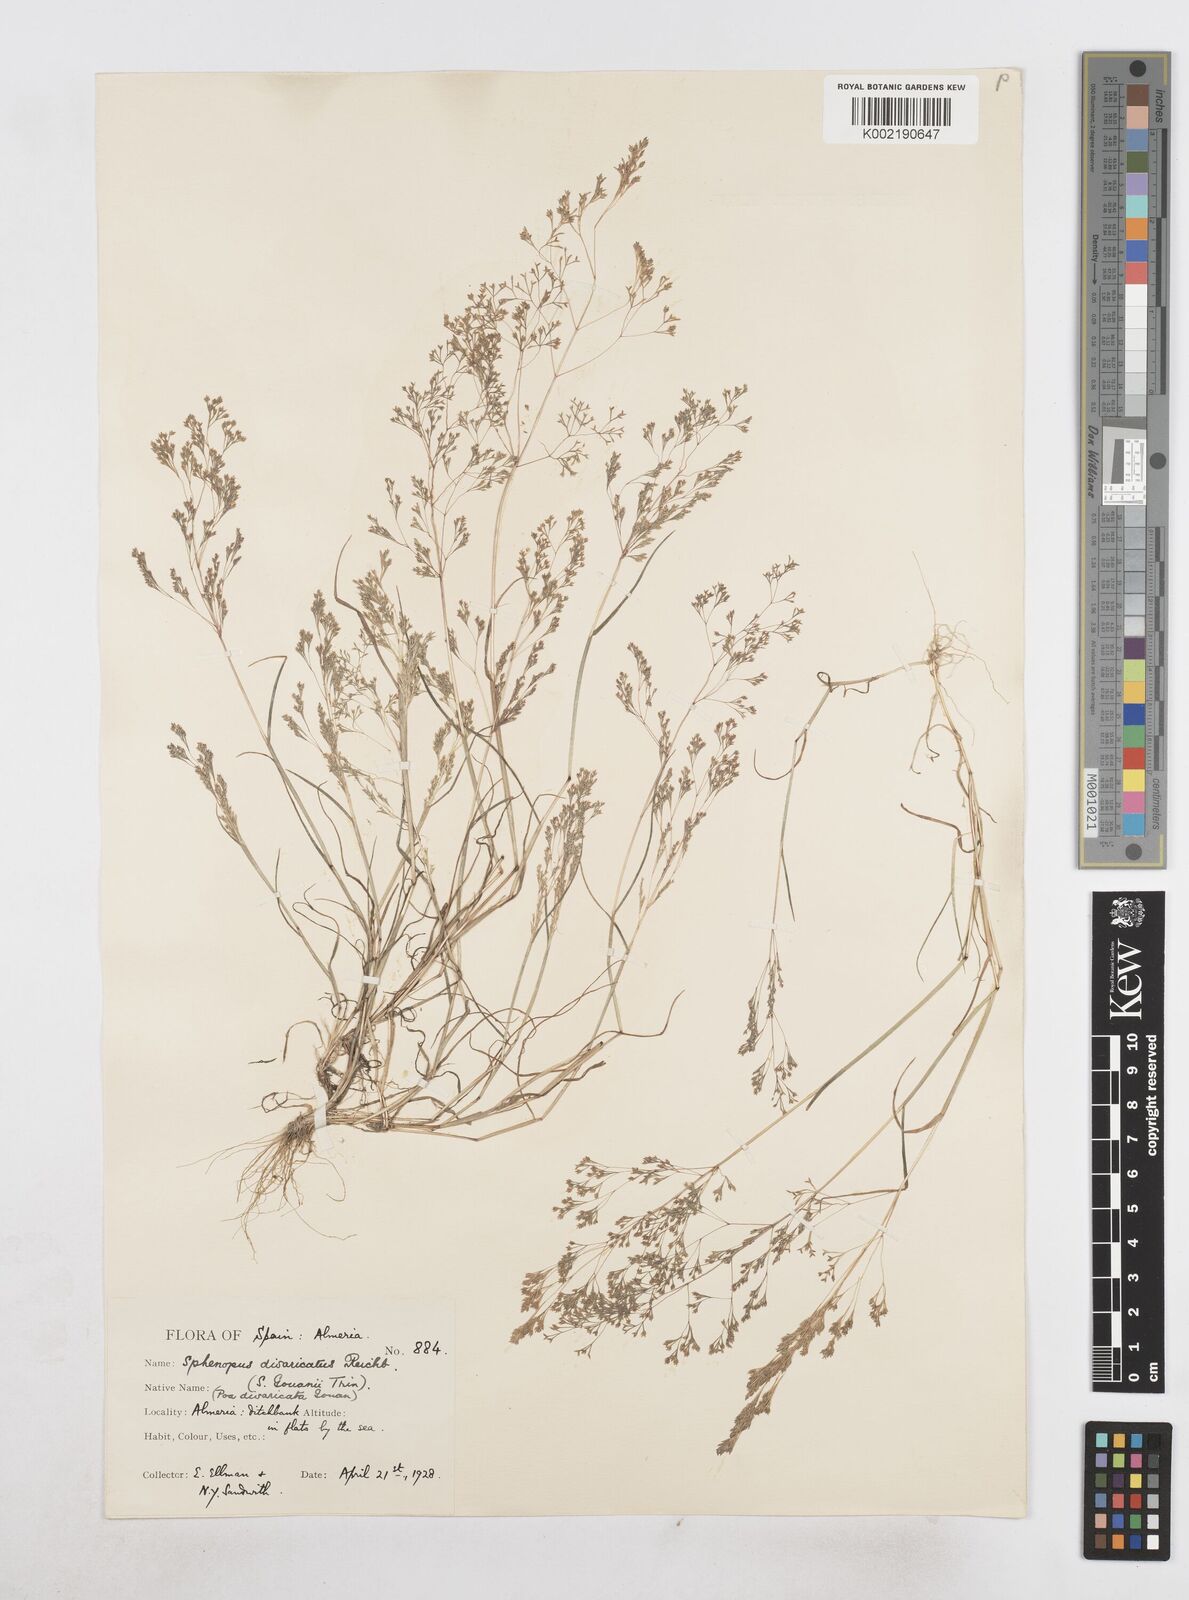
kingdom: Plantae
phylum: Tracheophyta
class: Liliopsida
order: Poales
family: Poaceae
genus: Sphenopus
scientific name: Sphenopus divaricatus
